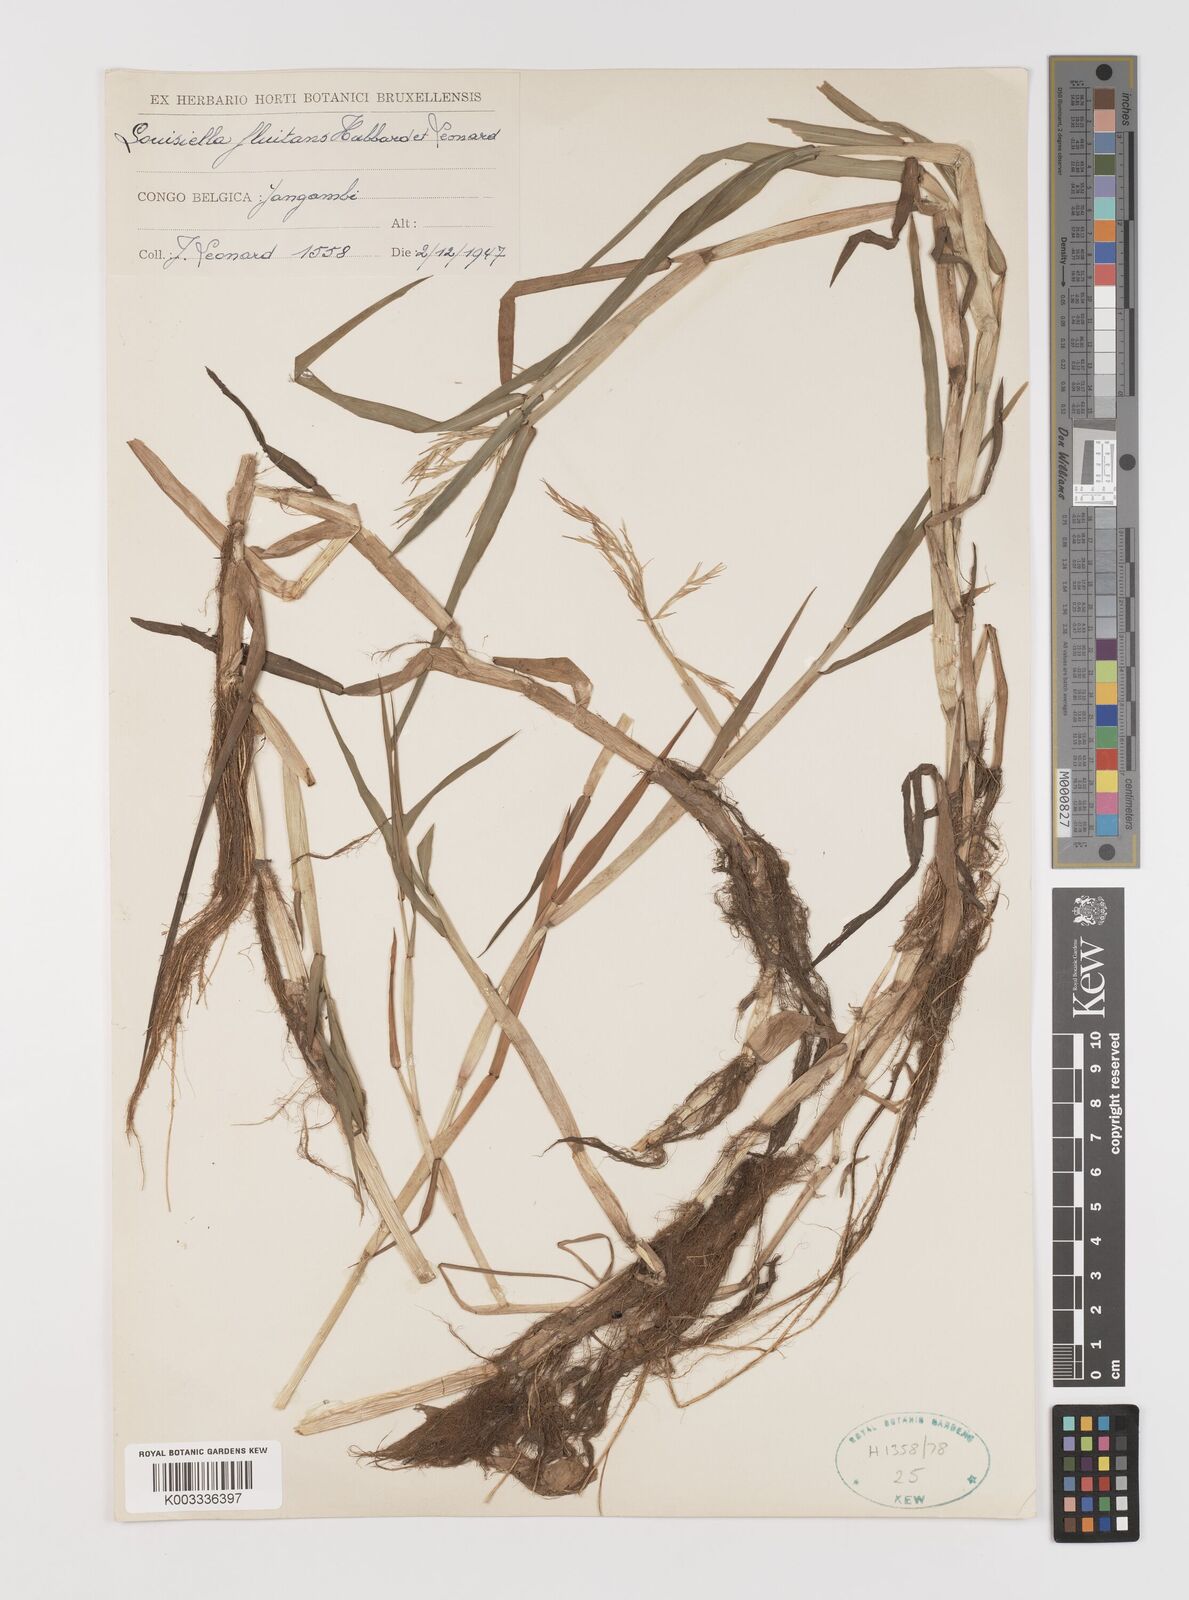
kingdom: Plantae
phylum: Tracheophyta
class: Liliopsida
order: Poales
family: Poaceae
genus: Louisiella
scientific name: Louisiella fluitans
